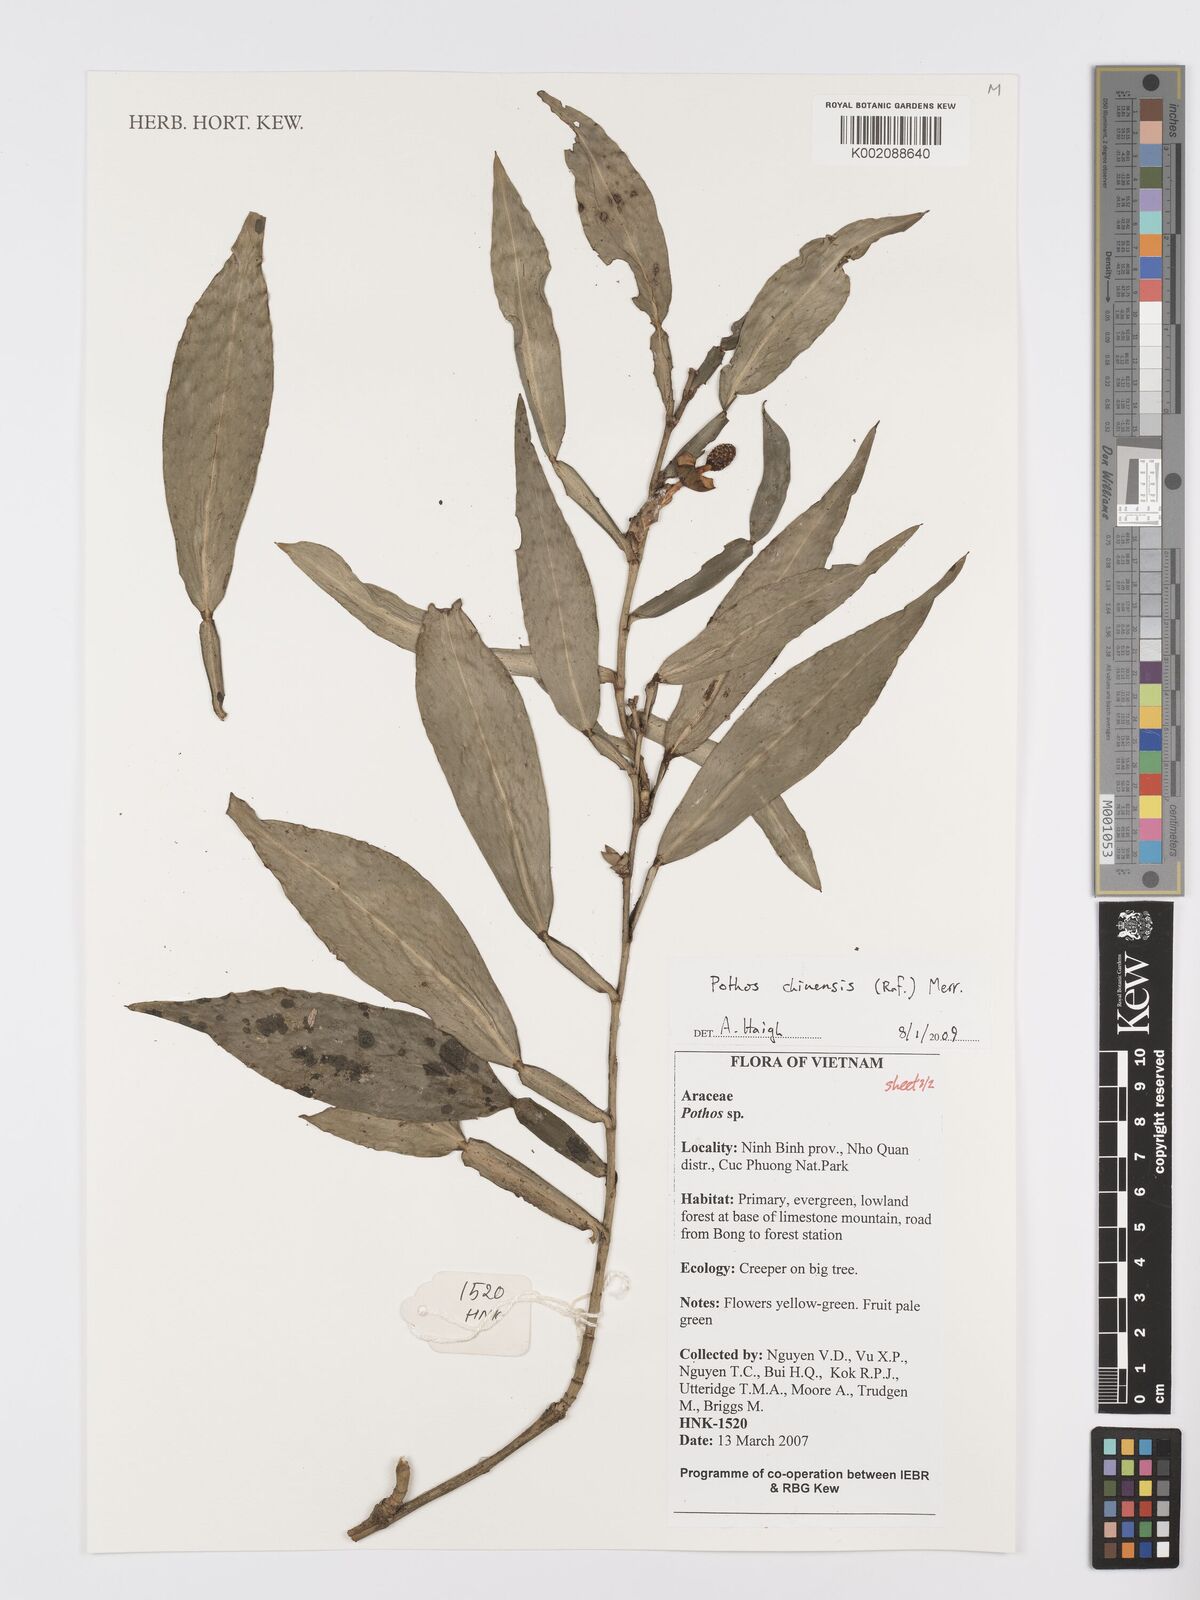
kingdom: Plantae
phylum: Tracheophyta
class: Liliopsida
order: Alismatales
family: Araceae
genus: Pothos
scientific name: Pothos chinensis
